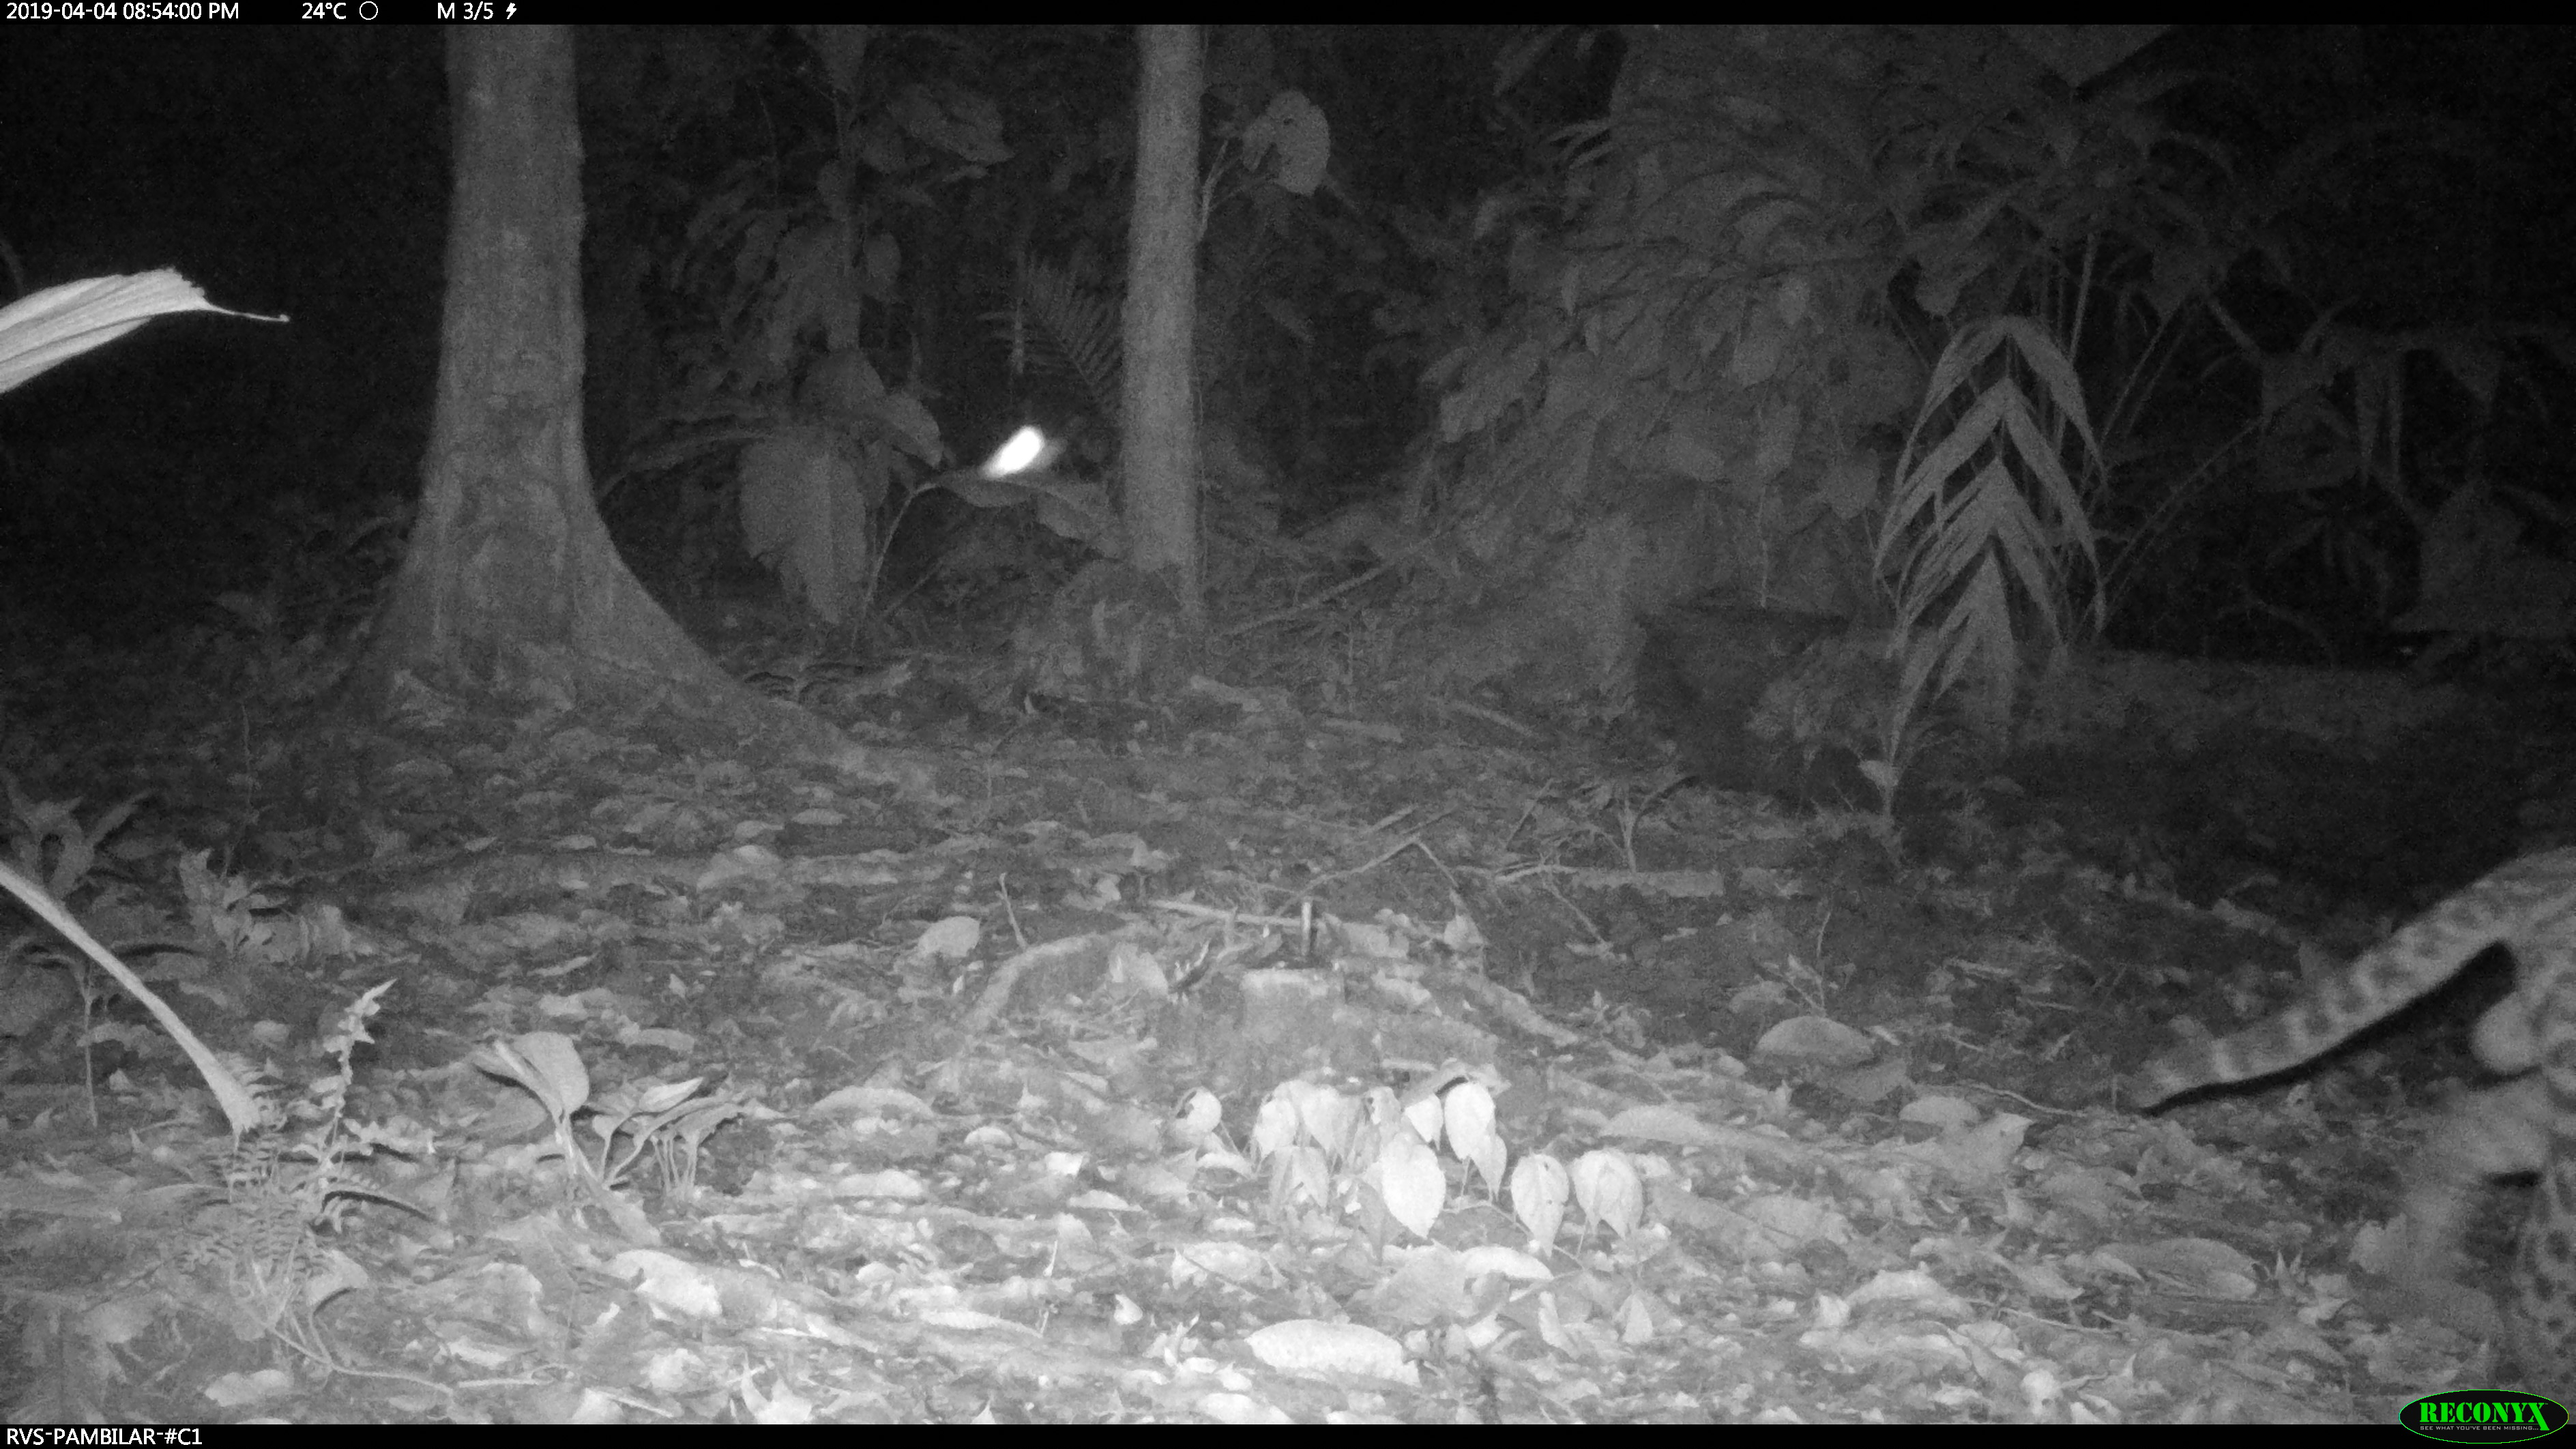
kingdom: Animalia
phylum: Chordata
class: Mammalia
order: Carnivora
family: Felidae
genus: Leopardus
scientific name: Leopardus pardalis
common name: Ocelot
